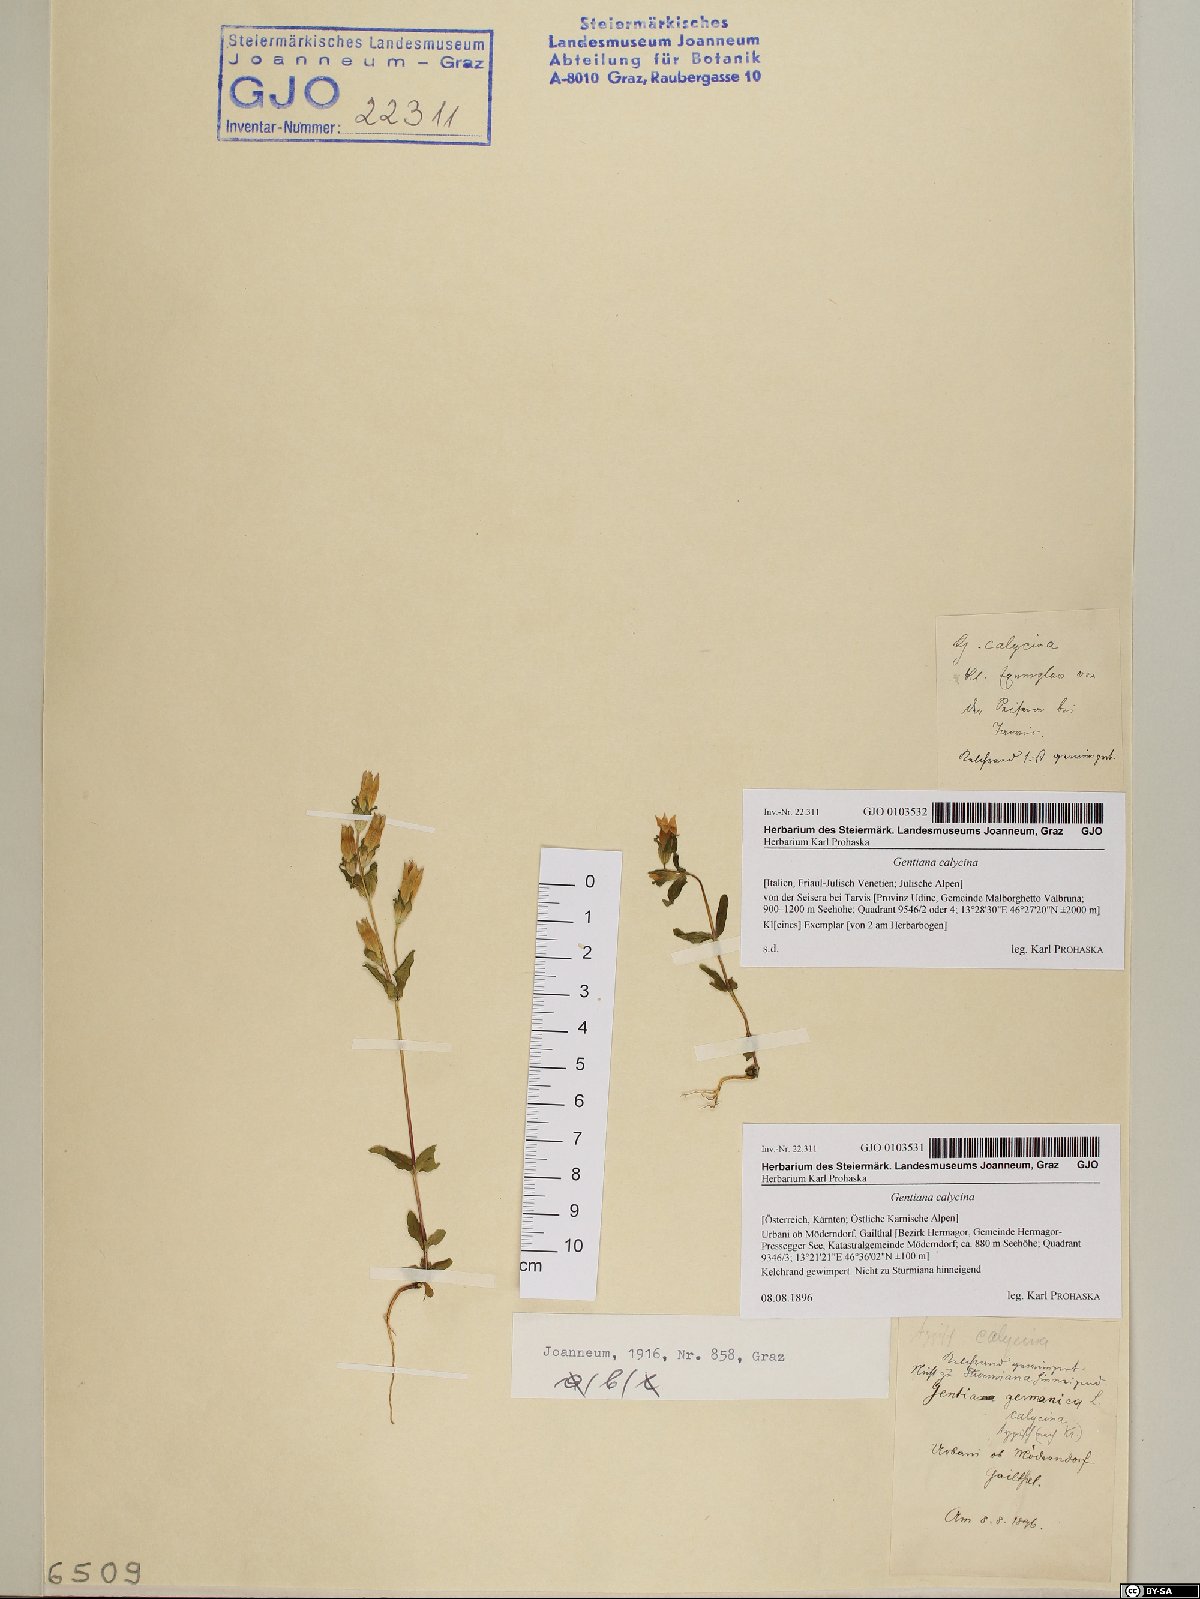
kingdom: Plantae
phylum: Tracheophyta
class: Magnoliopsida
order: Gentianales
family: Gentianaceae
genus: Gentianella
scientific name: Gentianella germanica
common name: Chiltern-gentian
